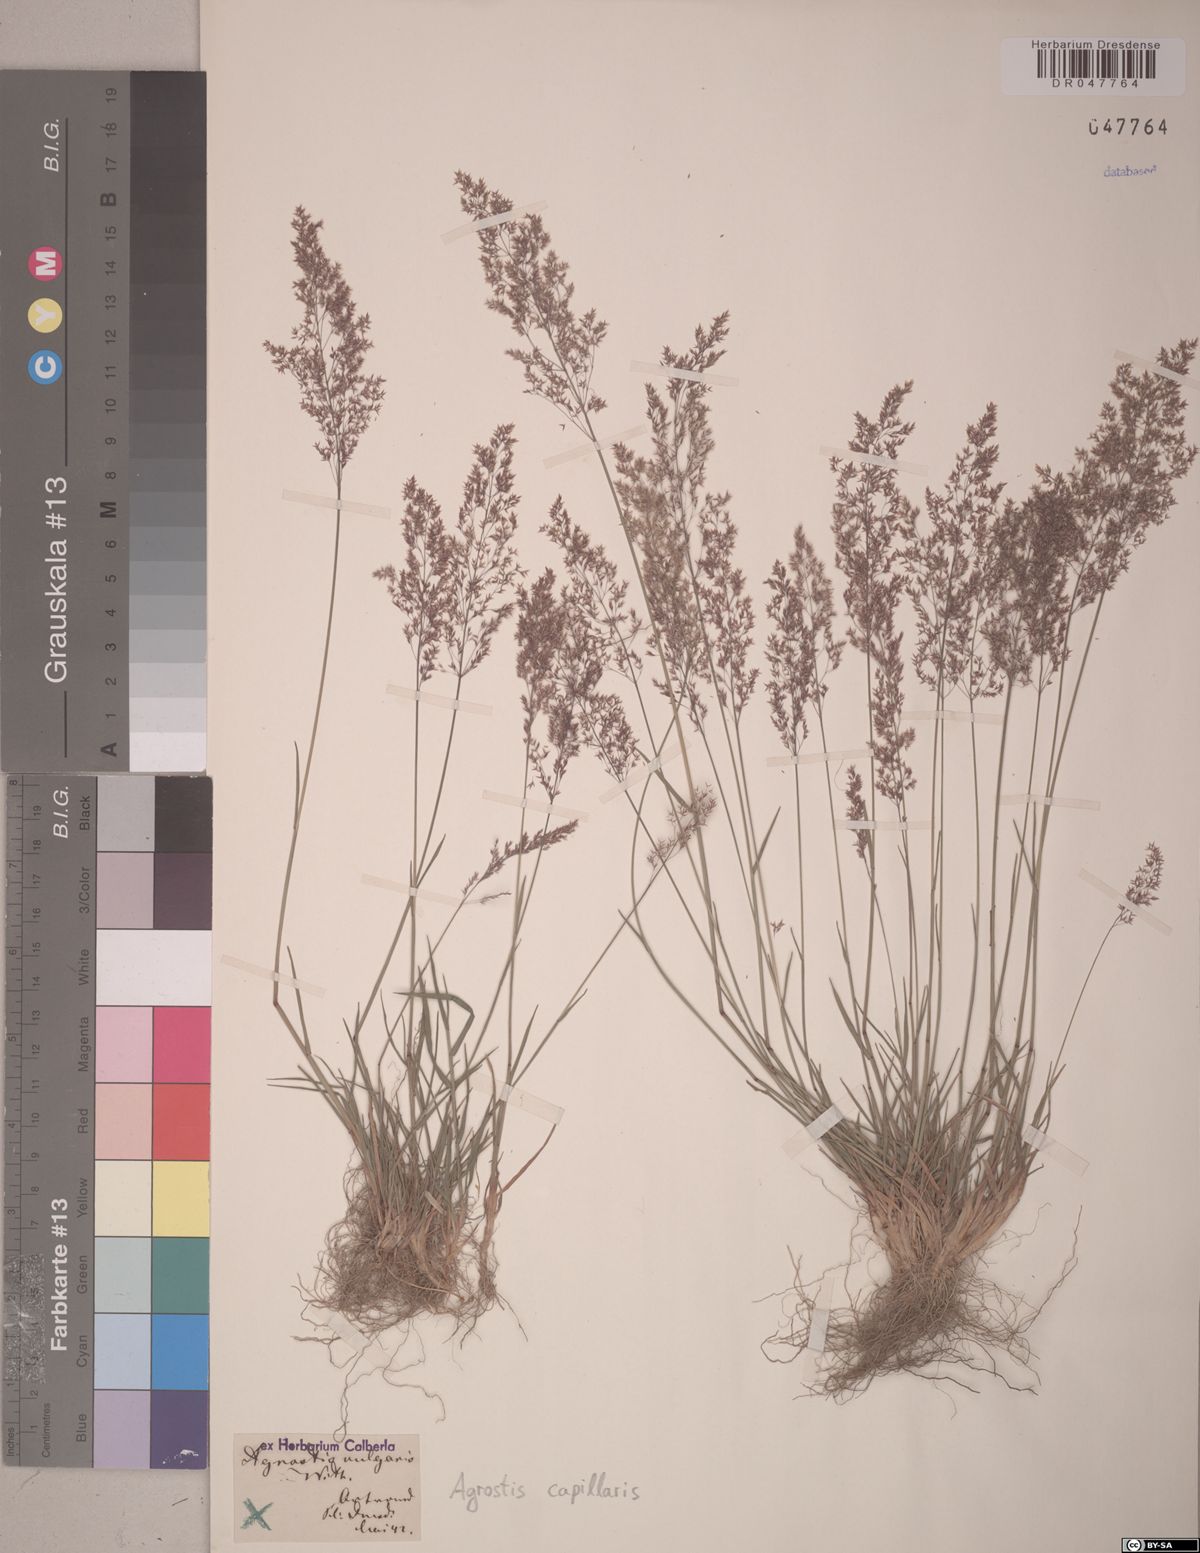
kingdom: Plantae
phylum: Tracheophyta
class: Liliopsida
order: Poales
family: Poaceae
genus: Agrostis
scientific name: Agrostis capillaris
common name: Colonial bentgrass
